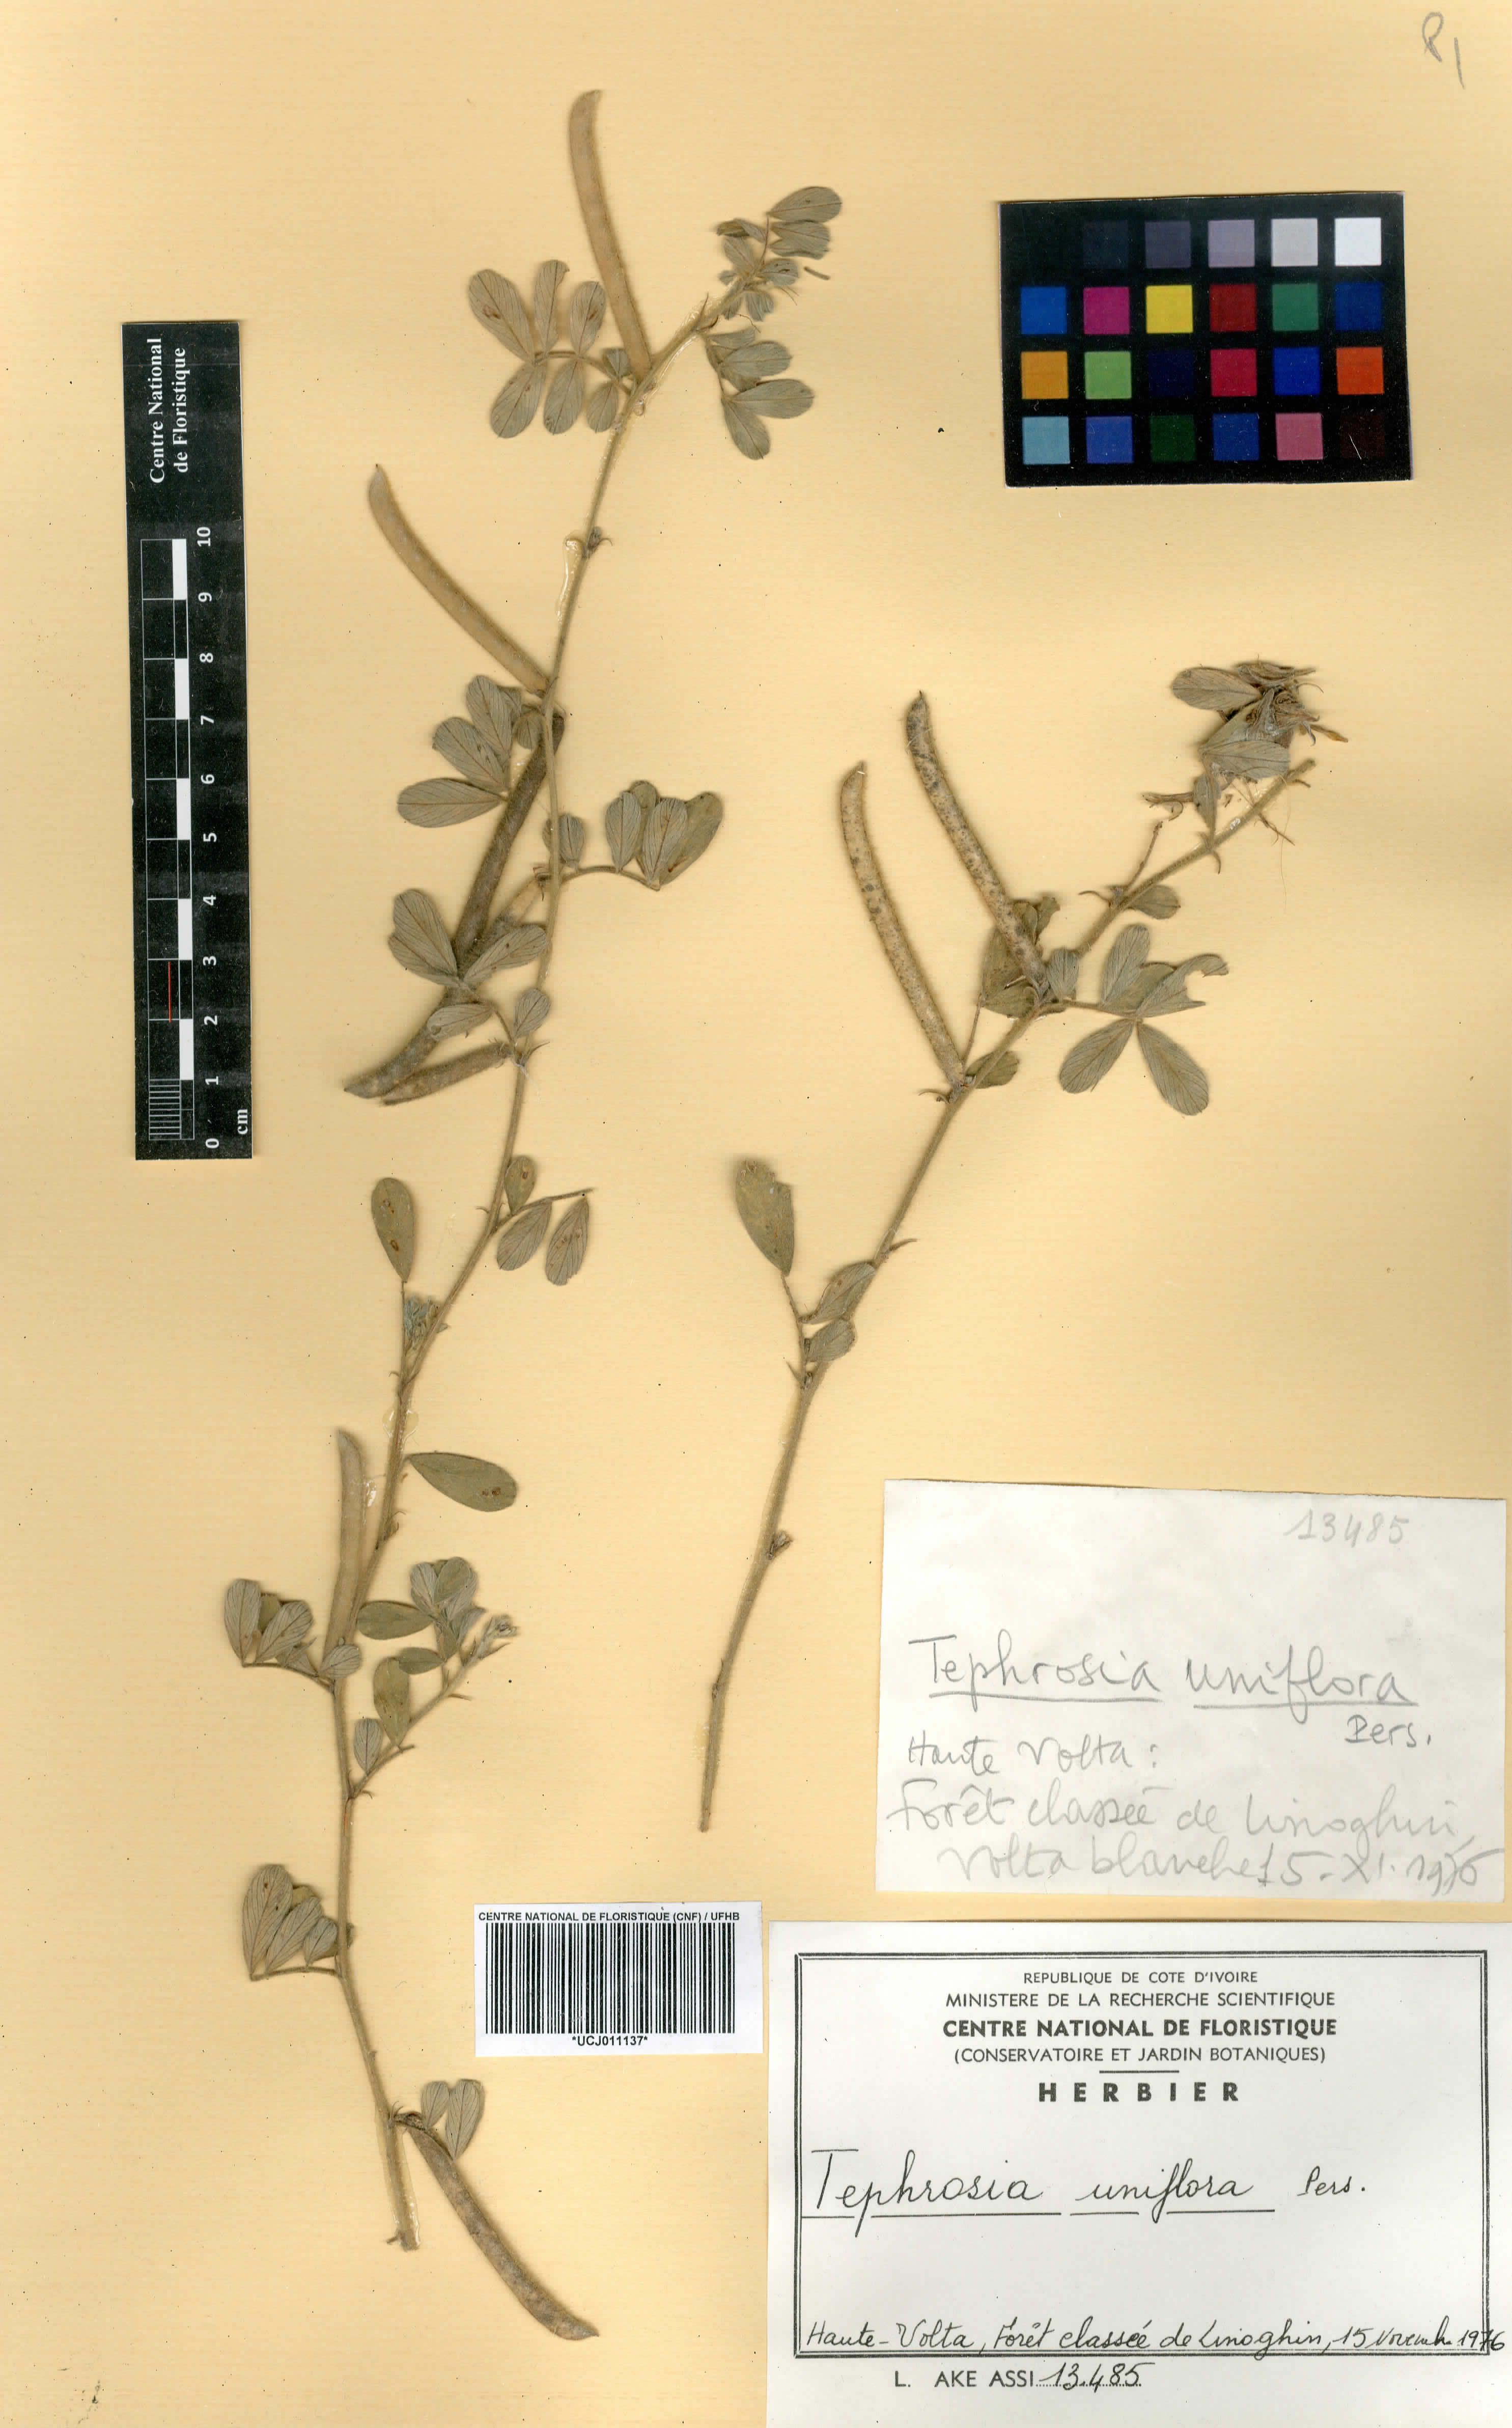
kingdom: Plantae
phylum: Tracheophyta
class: Magnoliopsida
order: Fabales
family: Fabaceae
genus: Tephrosia
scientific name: Tephrosia uniflora
